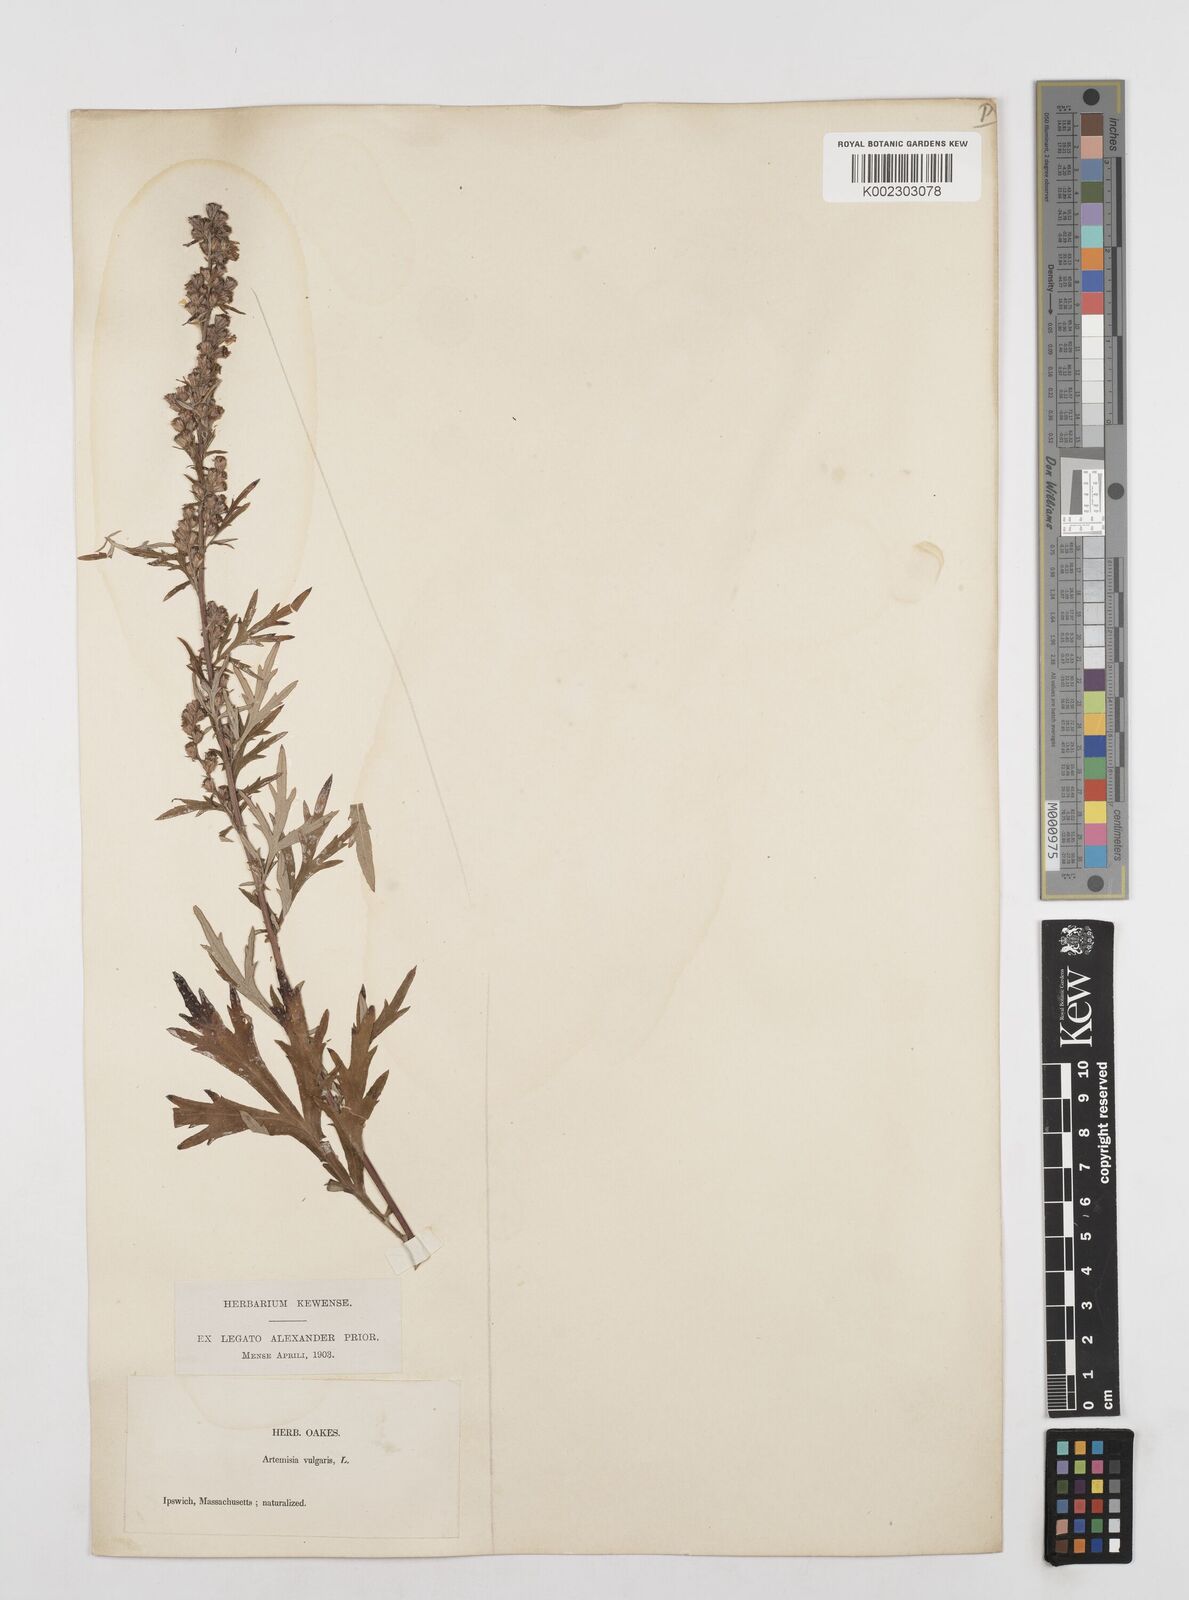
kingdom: Plantae
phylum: Tracheophyta
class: Magnoliopsida
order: Asterales
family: Asteraceae
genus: Artemisia
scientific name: Artemisia vulgaris
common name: Mugwort
